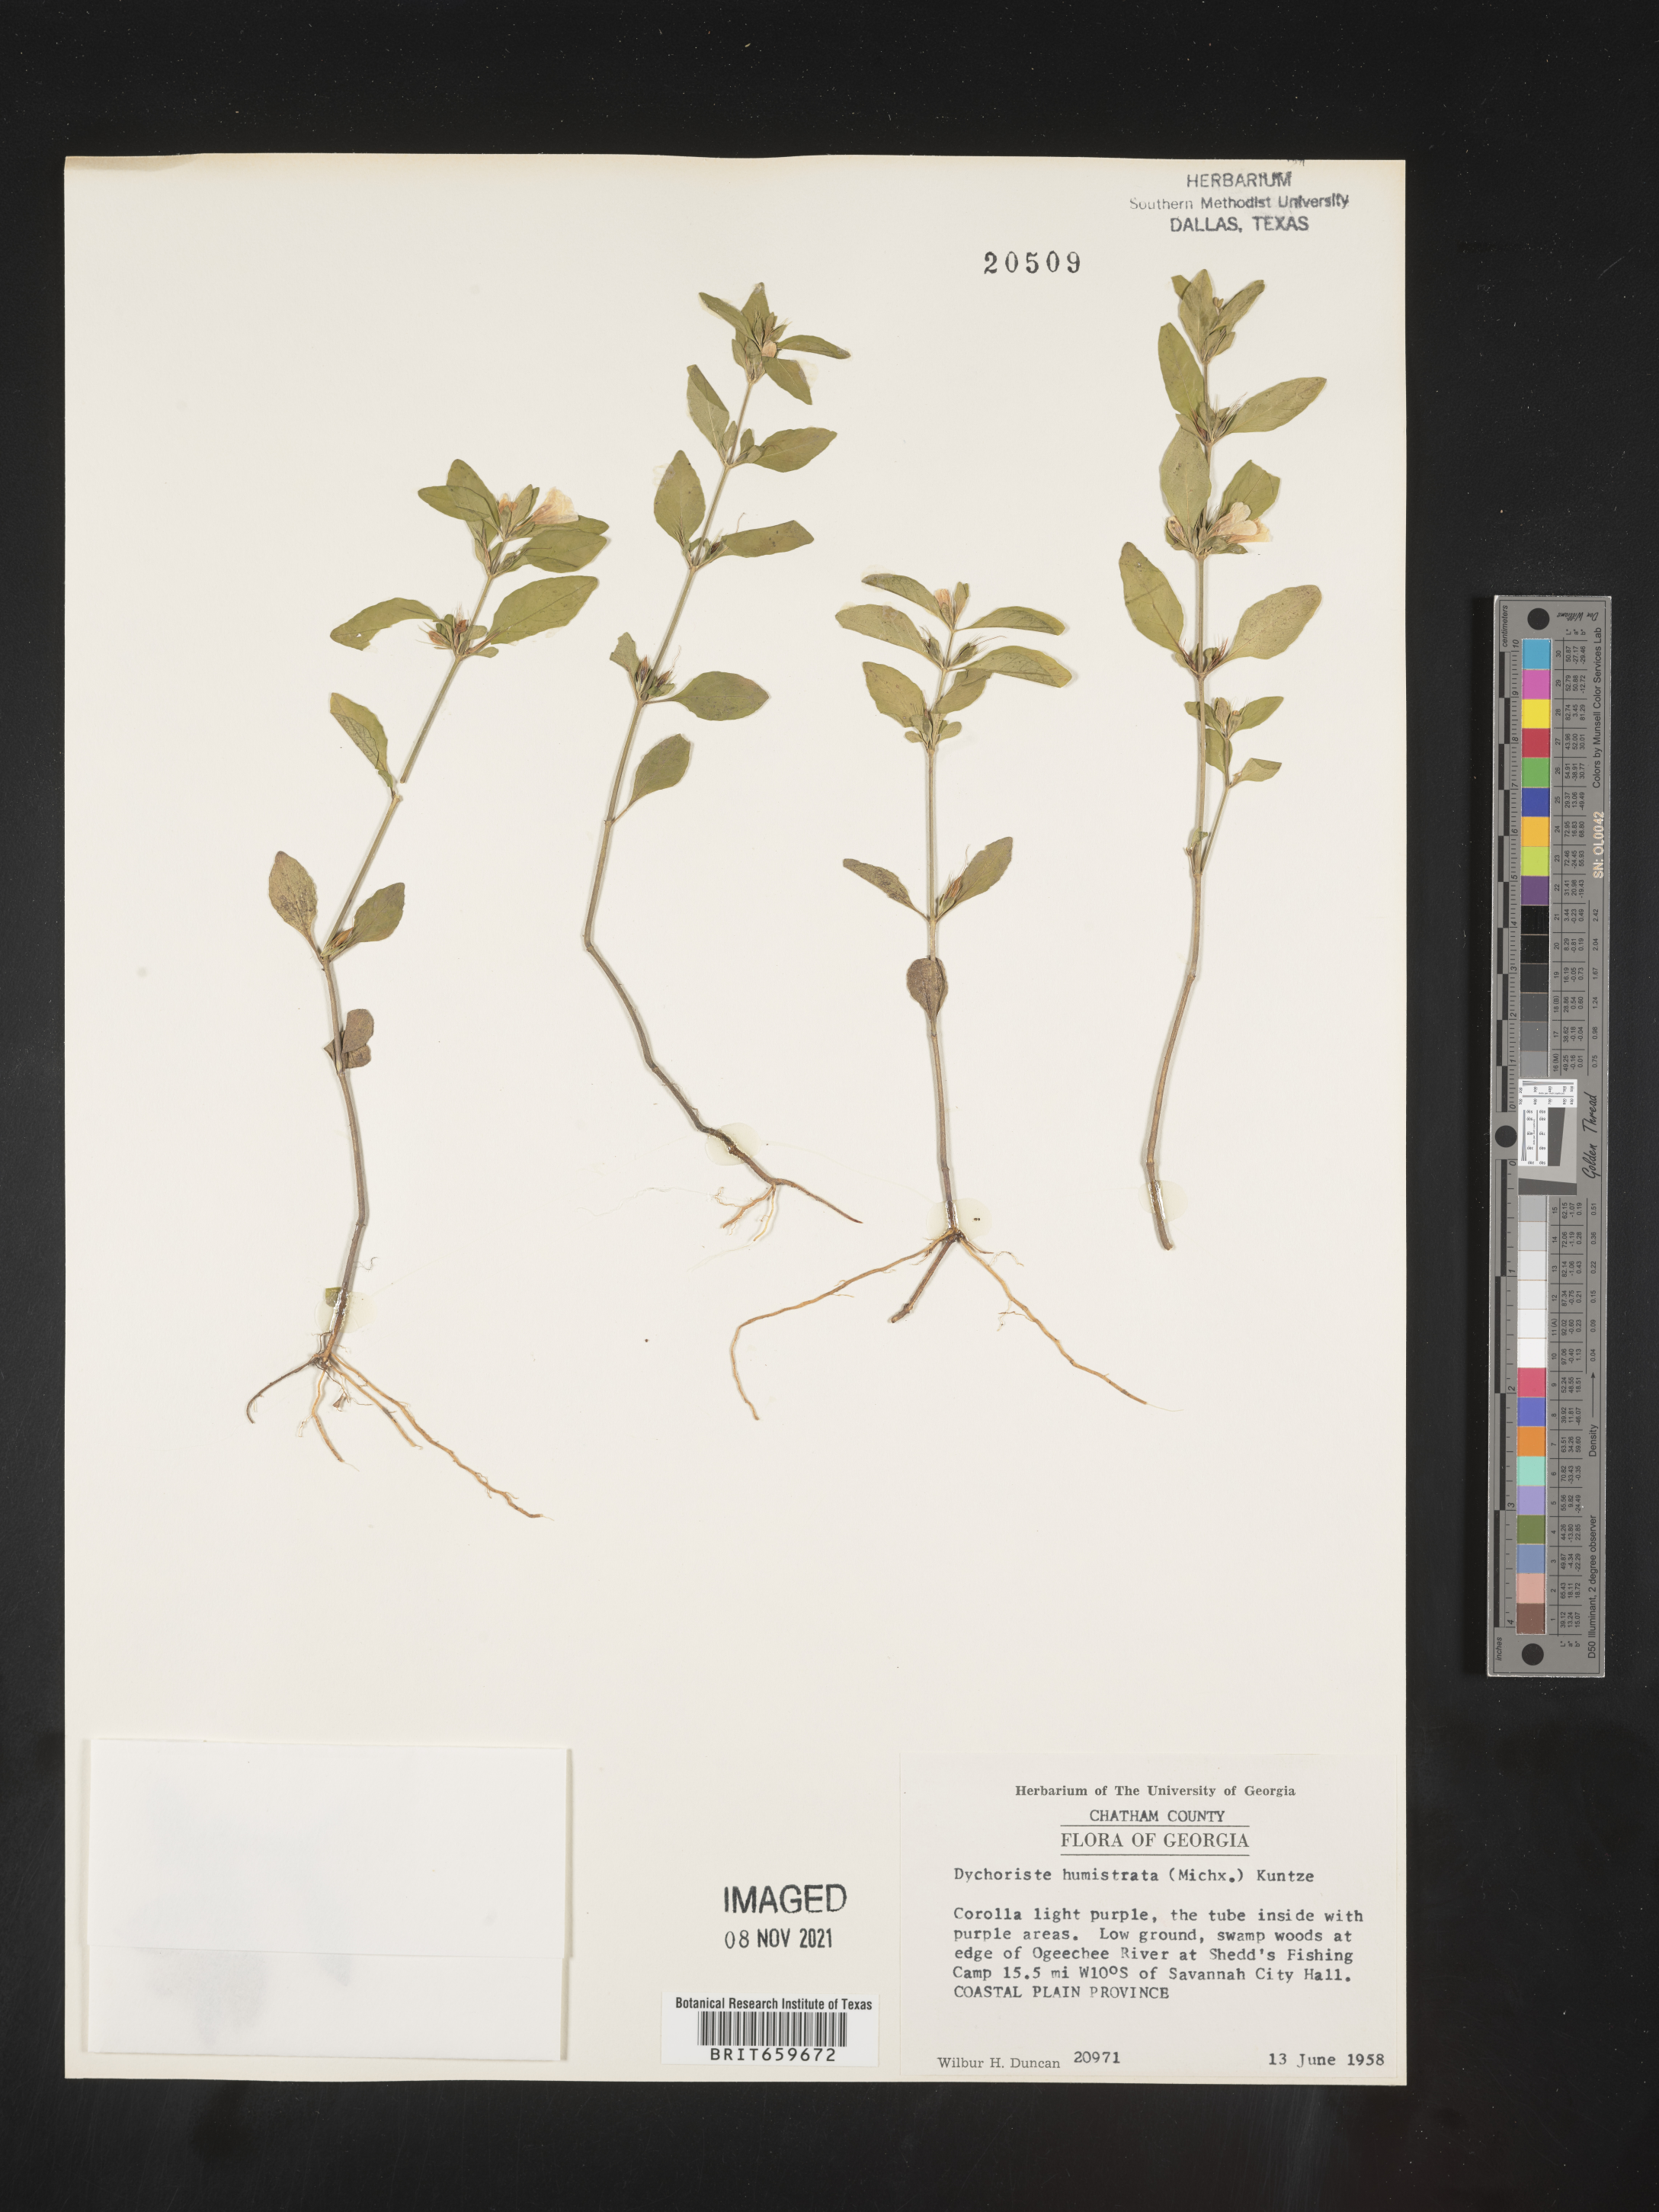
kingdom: Plantae
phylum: Tracheophyta
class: Magnoliopsida
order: Lamiales
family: Acanthaceae
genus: Dyschoriste
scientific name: Dyschoriste
